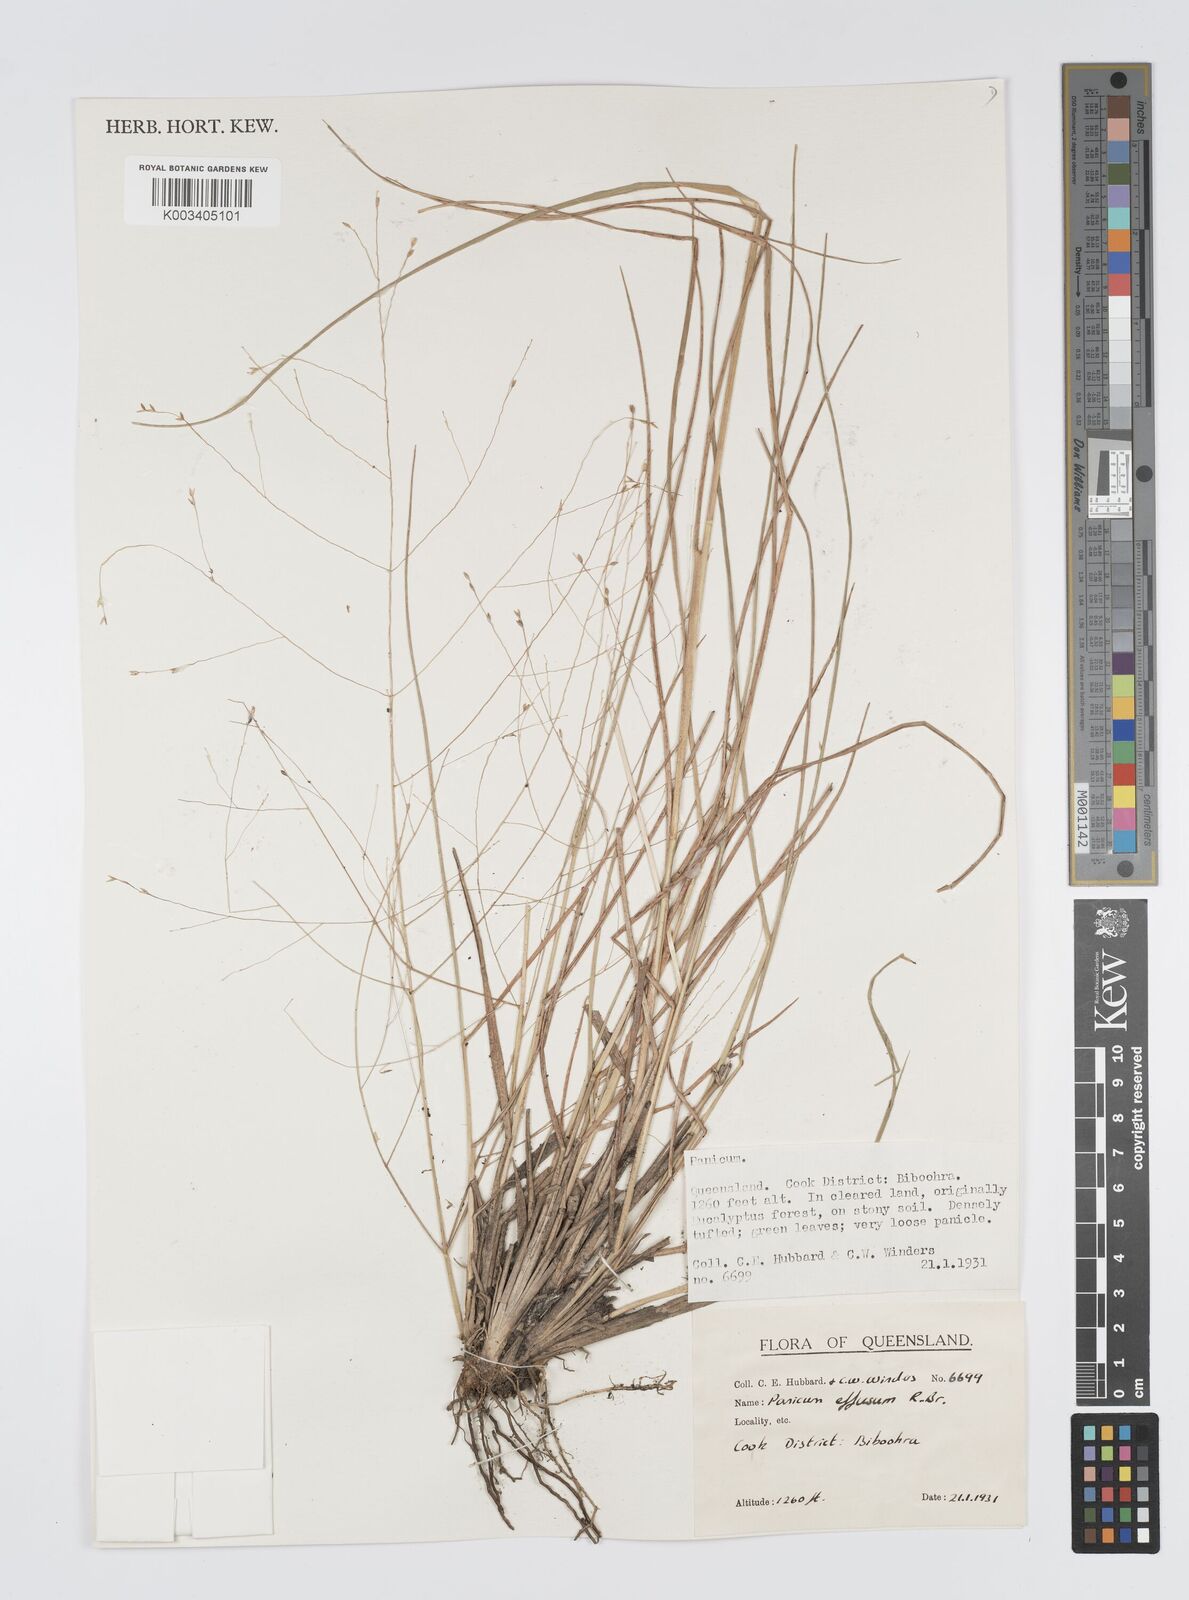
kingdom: Plantae
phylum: Tracheophyta
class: Liliopsida
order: Poales
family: Poaceae
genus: Panicum
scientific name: Panicum effusum
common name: Hairy panic grass
